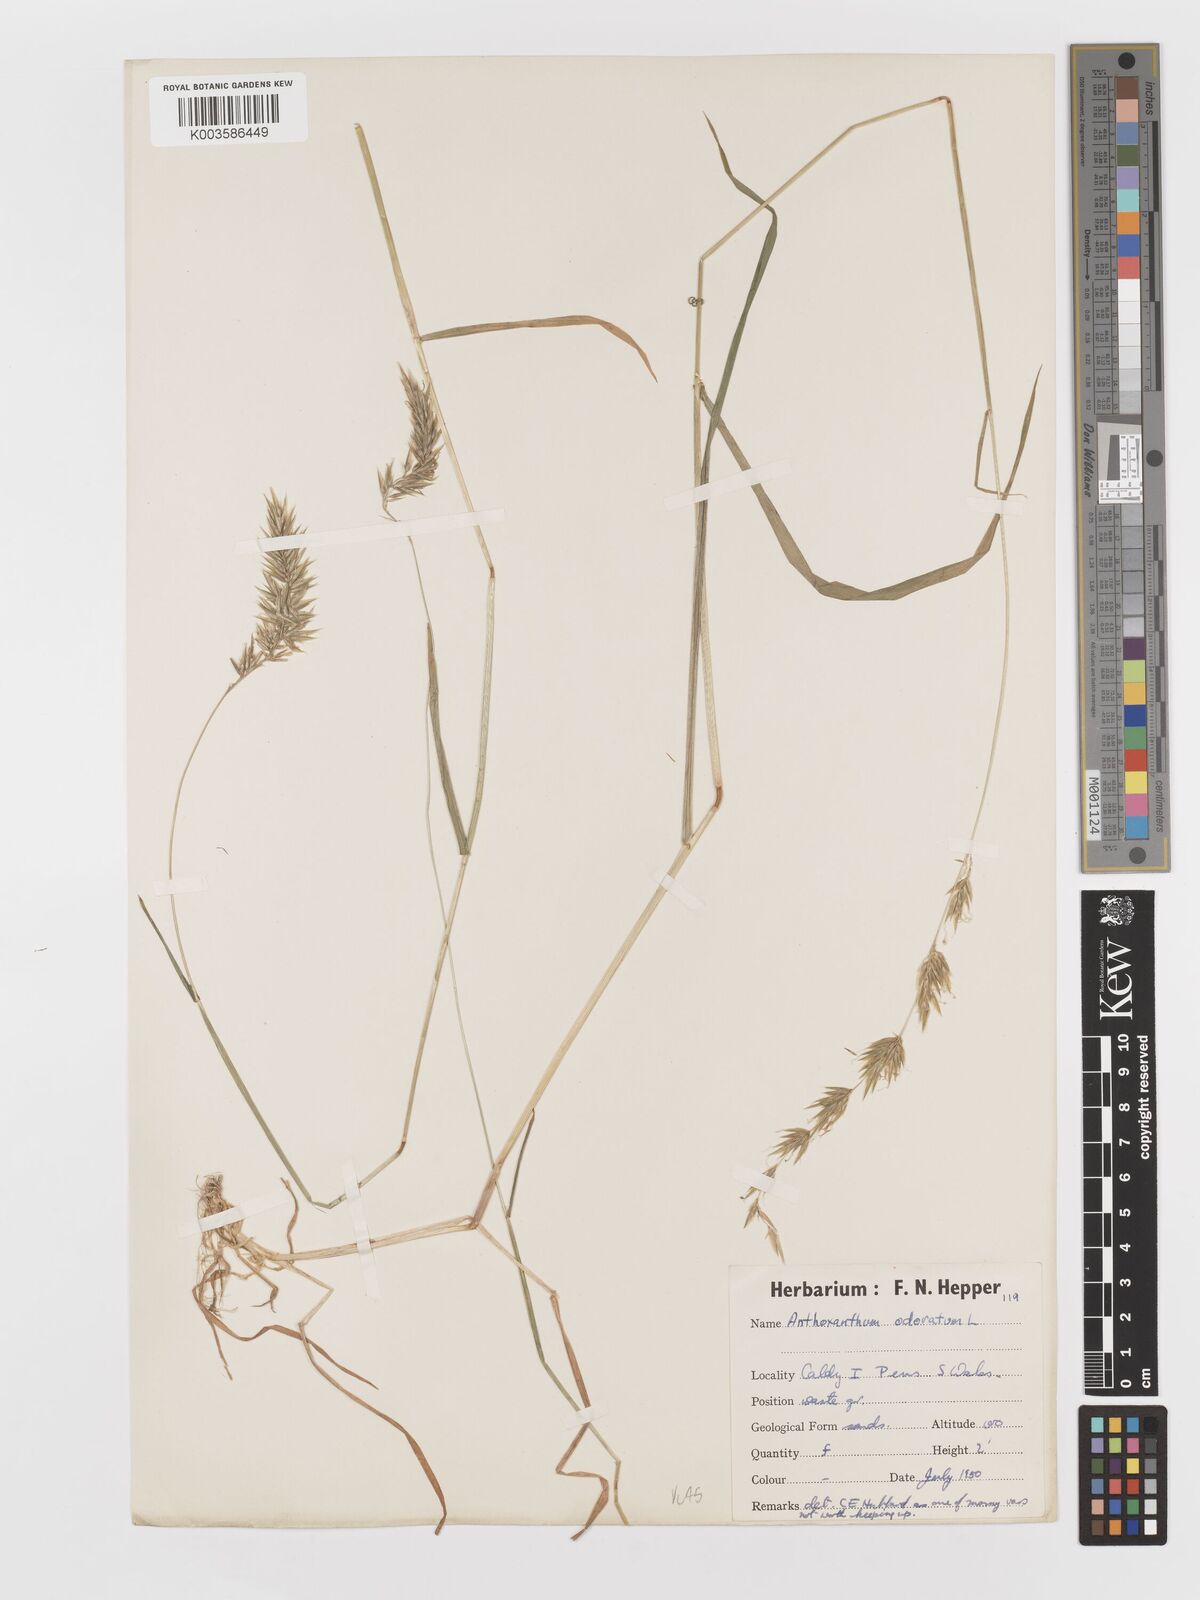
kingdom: Plantae
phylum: Tracheophyta
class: Liliopsida
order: Poales
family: Poaceae
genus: Anthoxanthum
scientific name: Anthoxanthum odoratum
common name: Sweet vernalgrass
